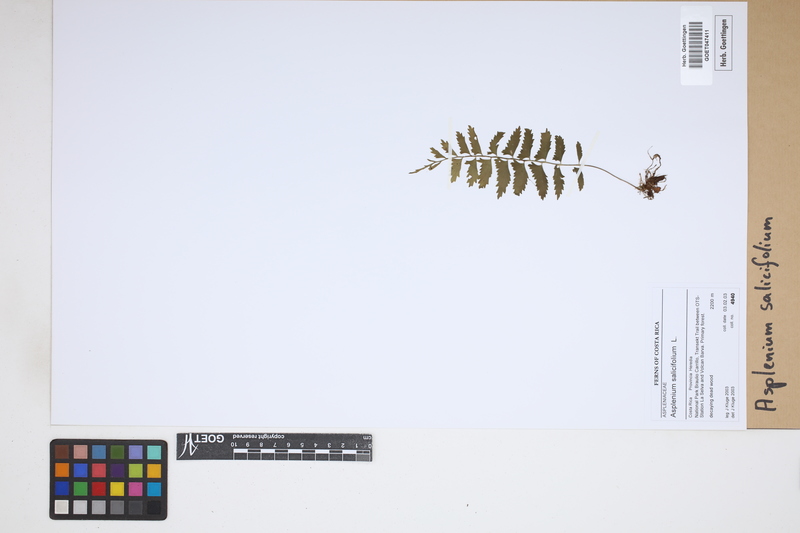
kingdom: Plantae
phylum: Tracheophyta
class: Polypodiopsida
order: Polypodiales
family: Aspleniaceae
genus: Asplenium
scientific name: Asplenium salicifolium
